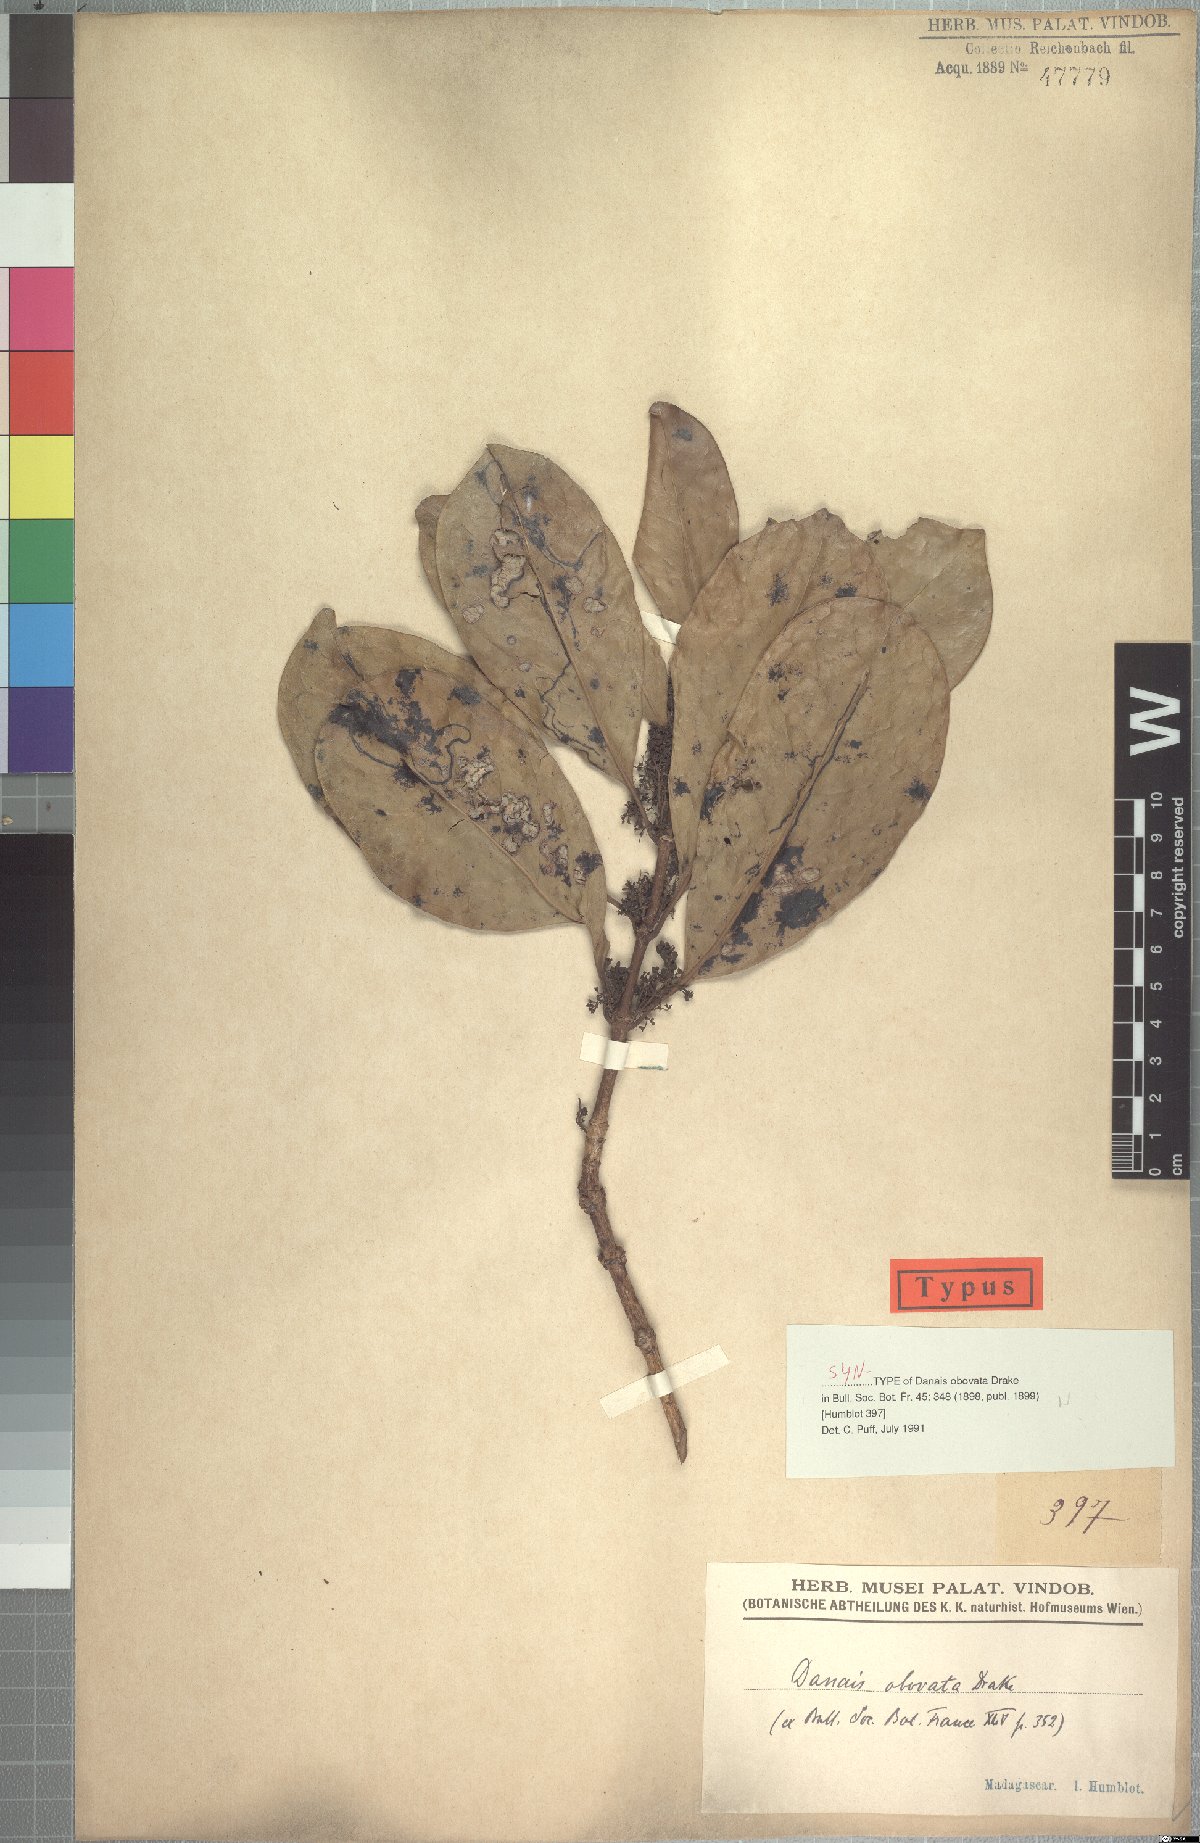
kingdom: Plantae
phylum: Tracheophyta
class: Magnoliopsida
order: Gentianales
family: Rubiaceae
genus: Danais
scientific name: Danais fragrans
